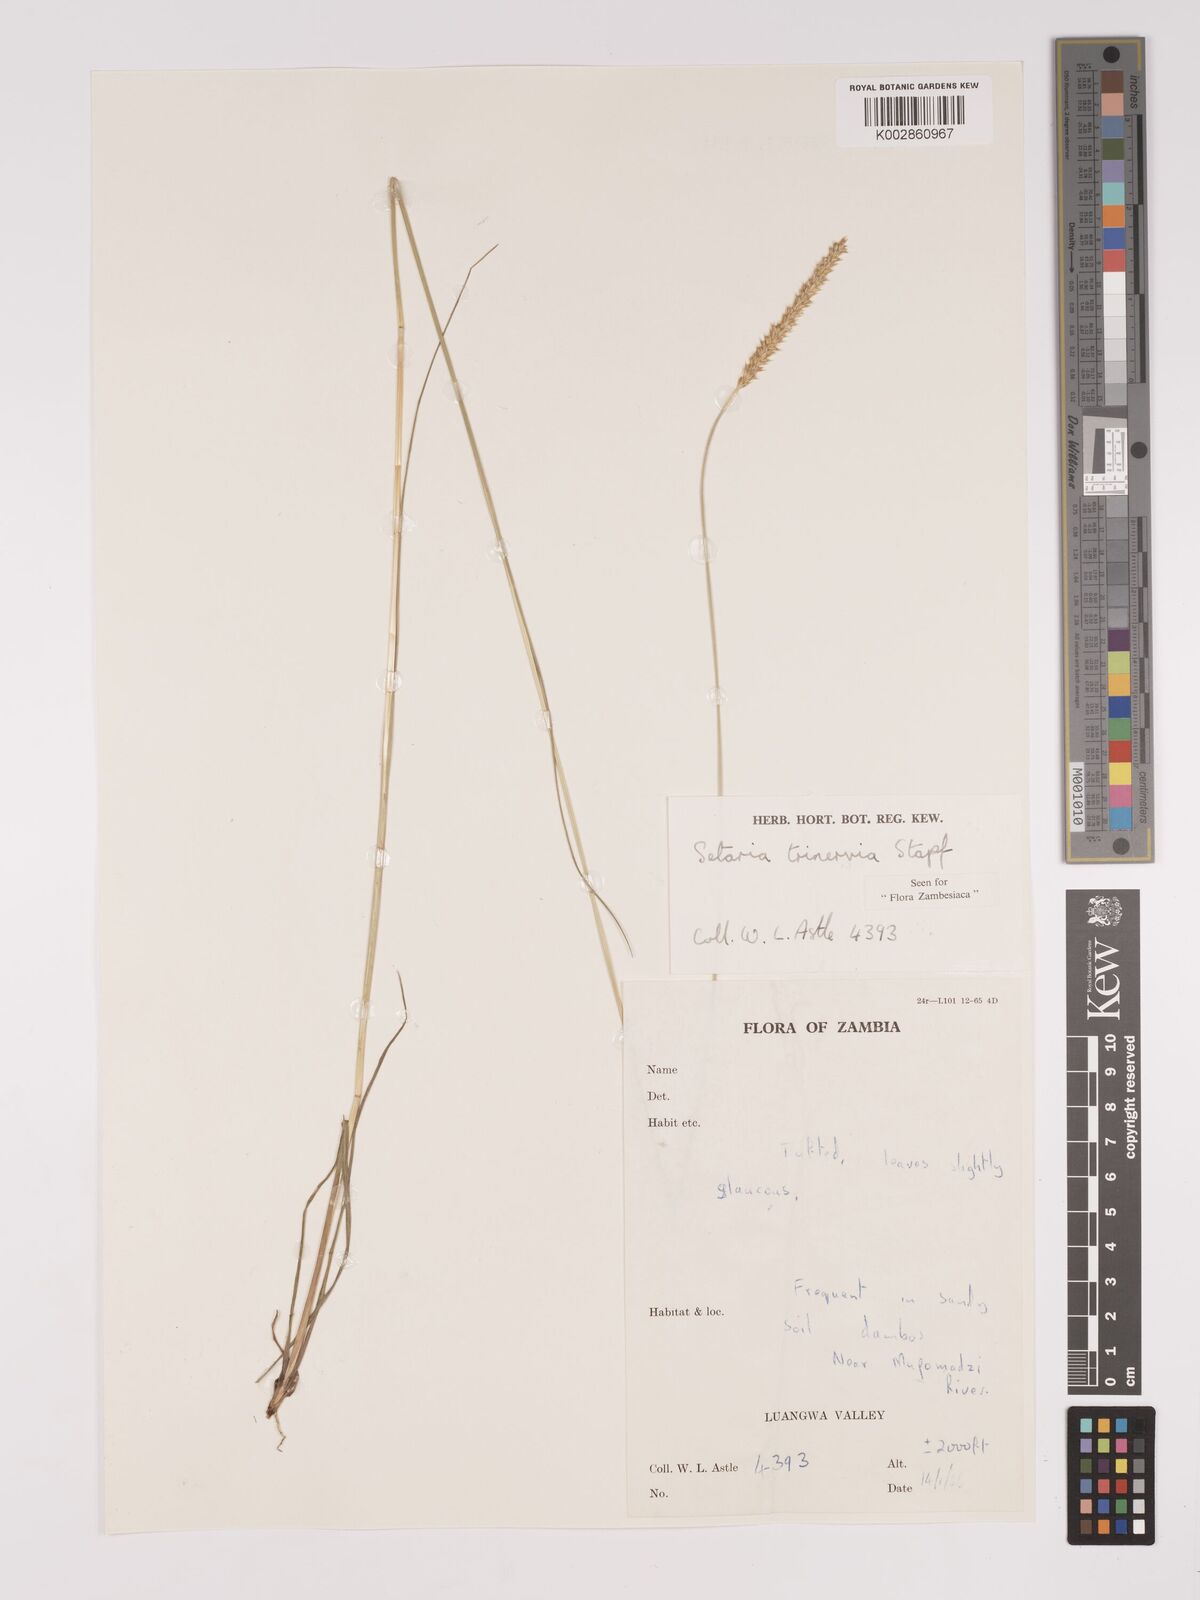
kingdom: Plantae
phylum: Tracheophyta
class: Liliopsida
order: Poales
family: Poaceae
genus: Setaria
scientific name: Setaria
